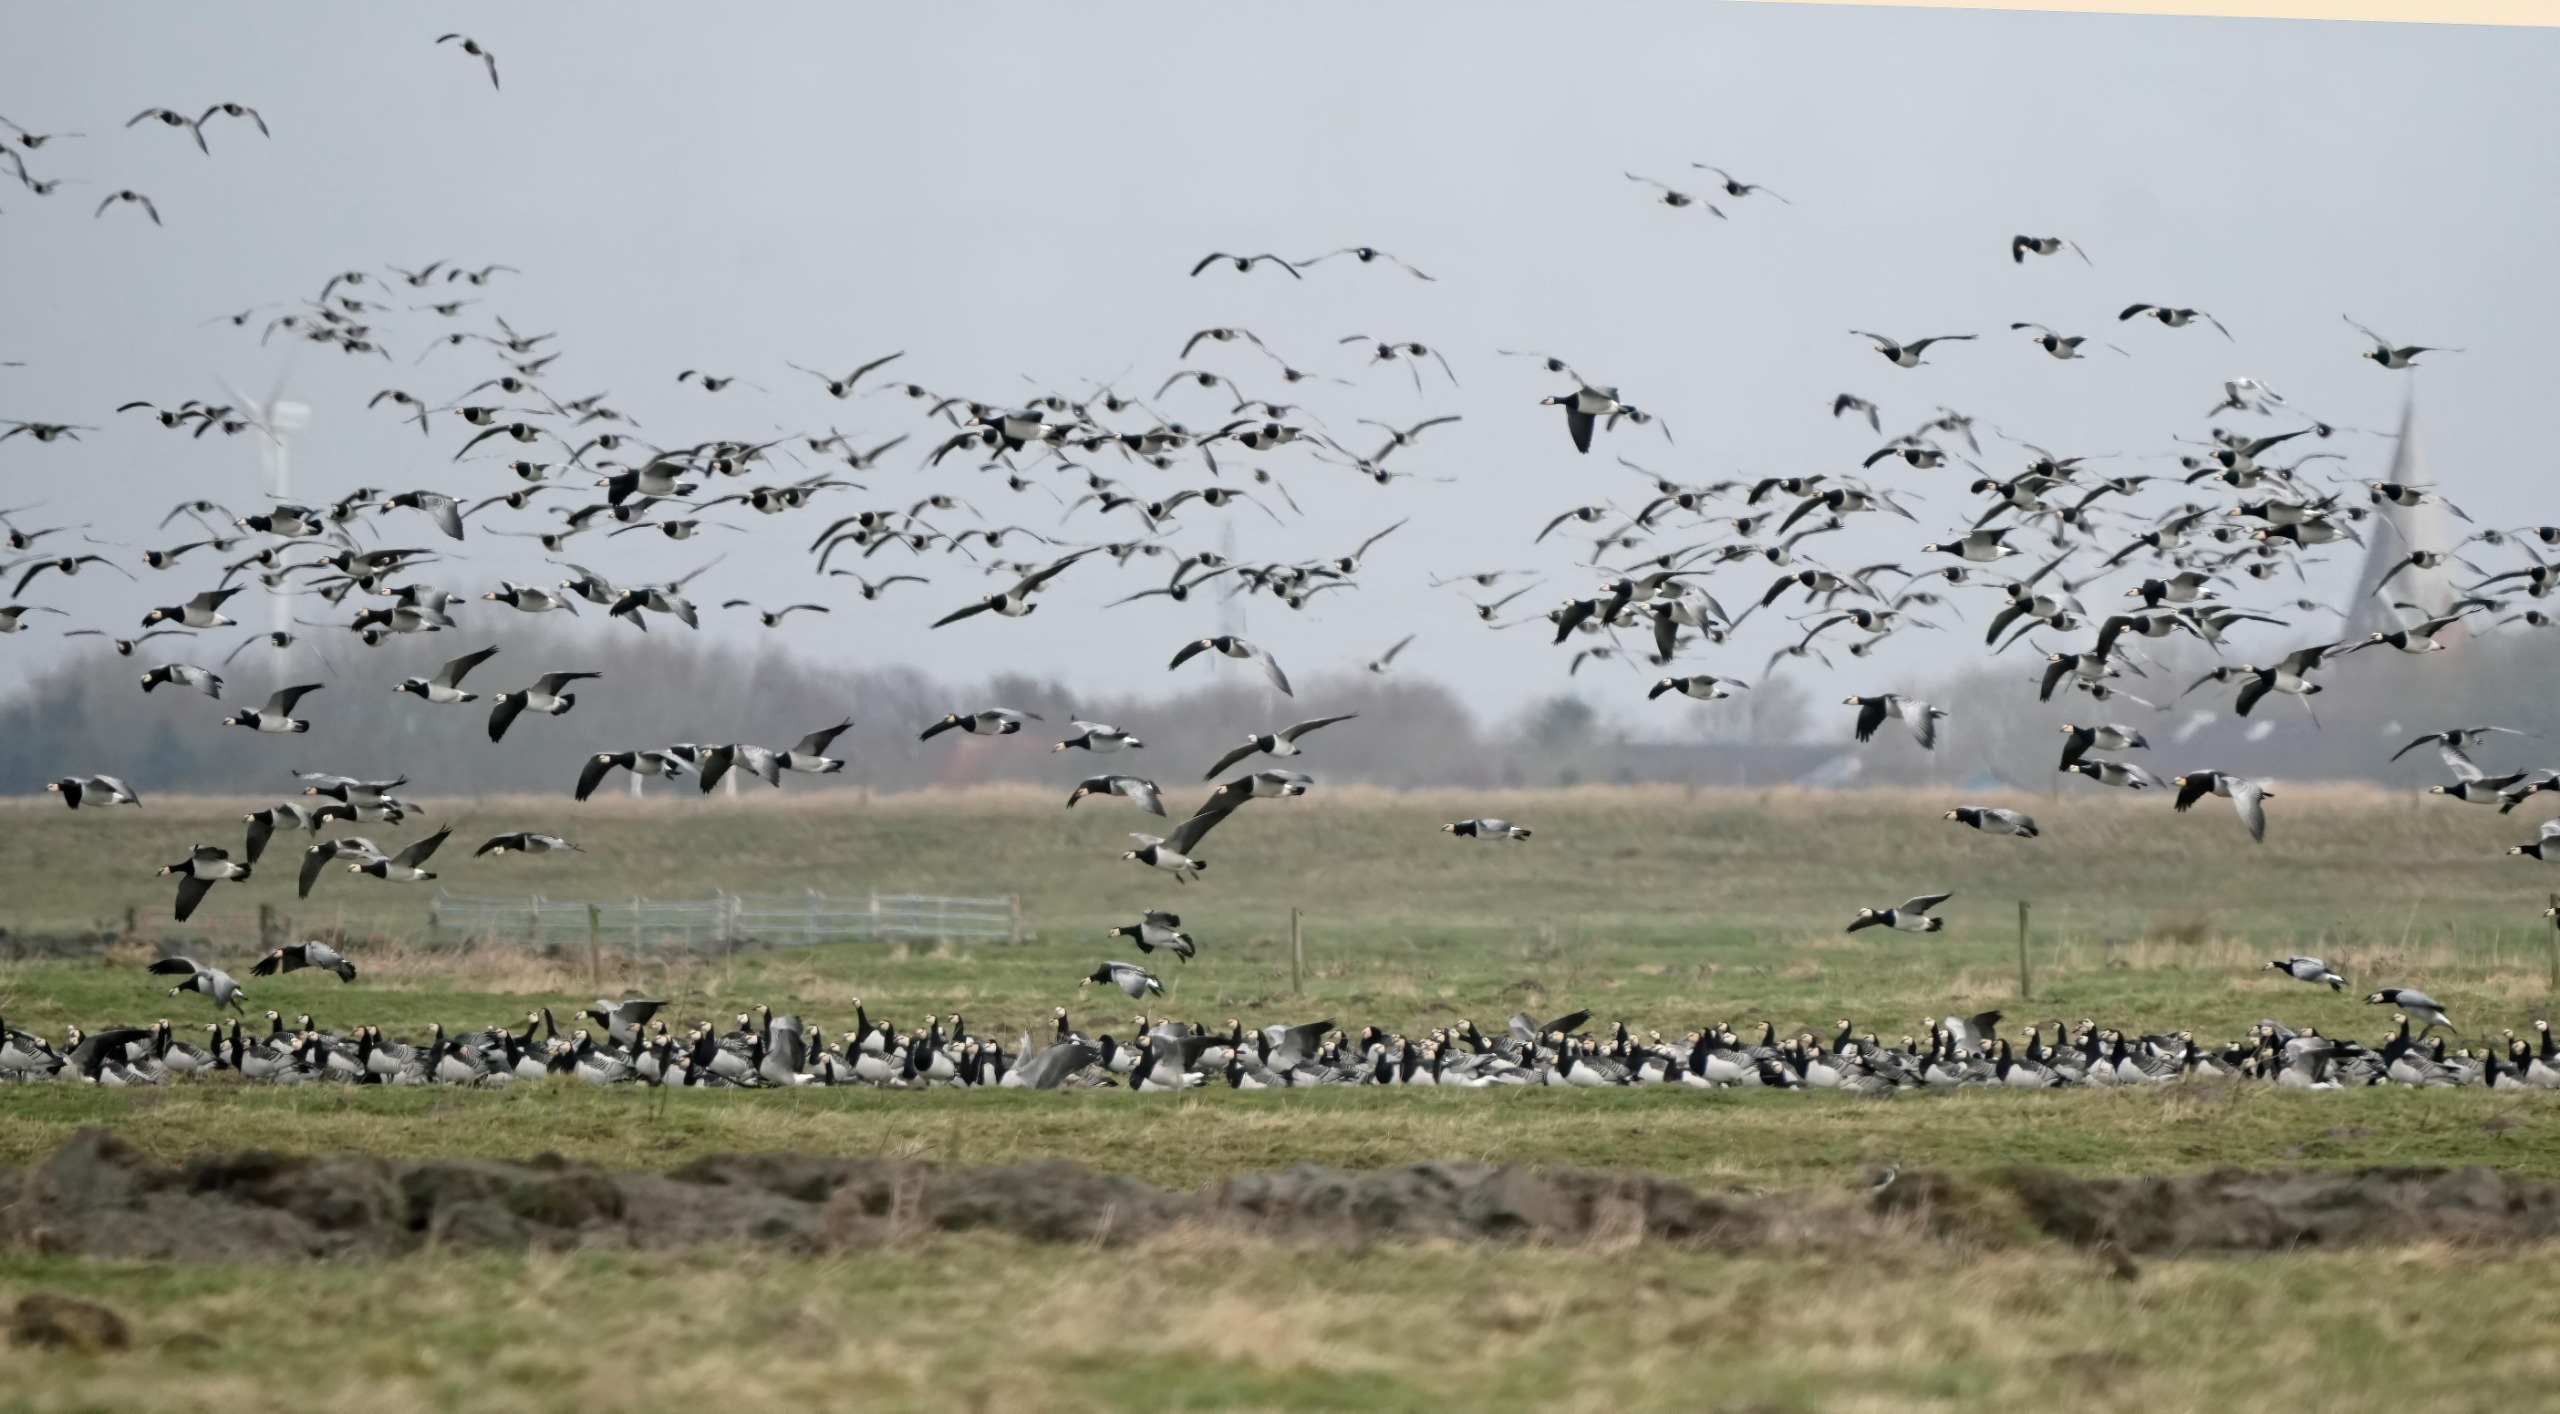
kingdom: Animalia
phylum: Chordata
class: Aves
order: Anseriformes
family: Anatidae
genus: Branta
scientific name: Branta leucopsis
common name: Bramgås
